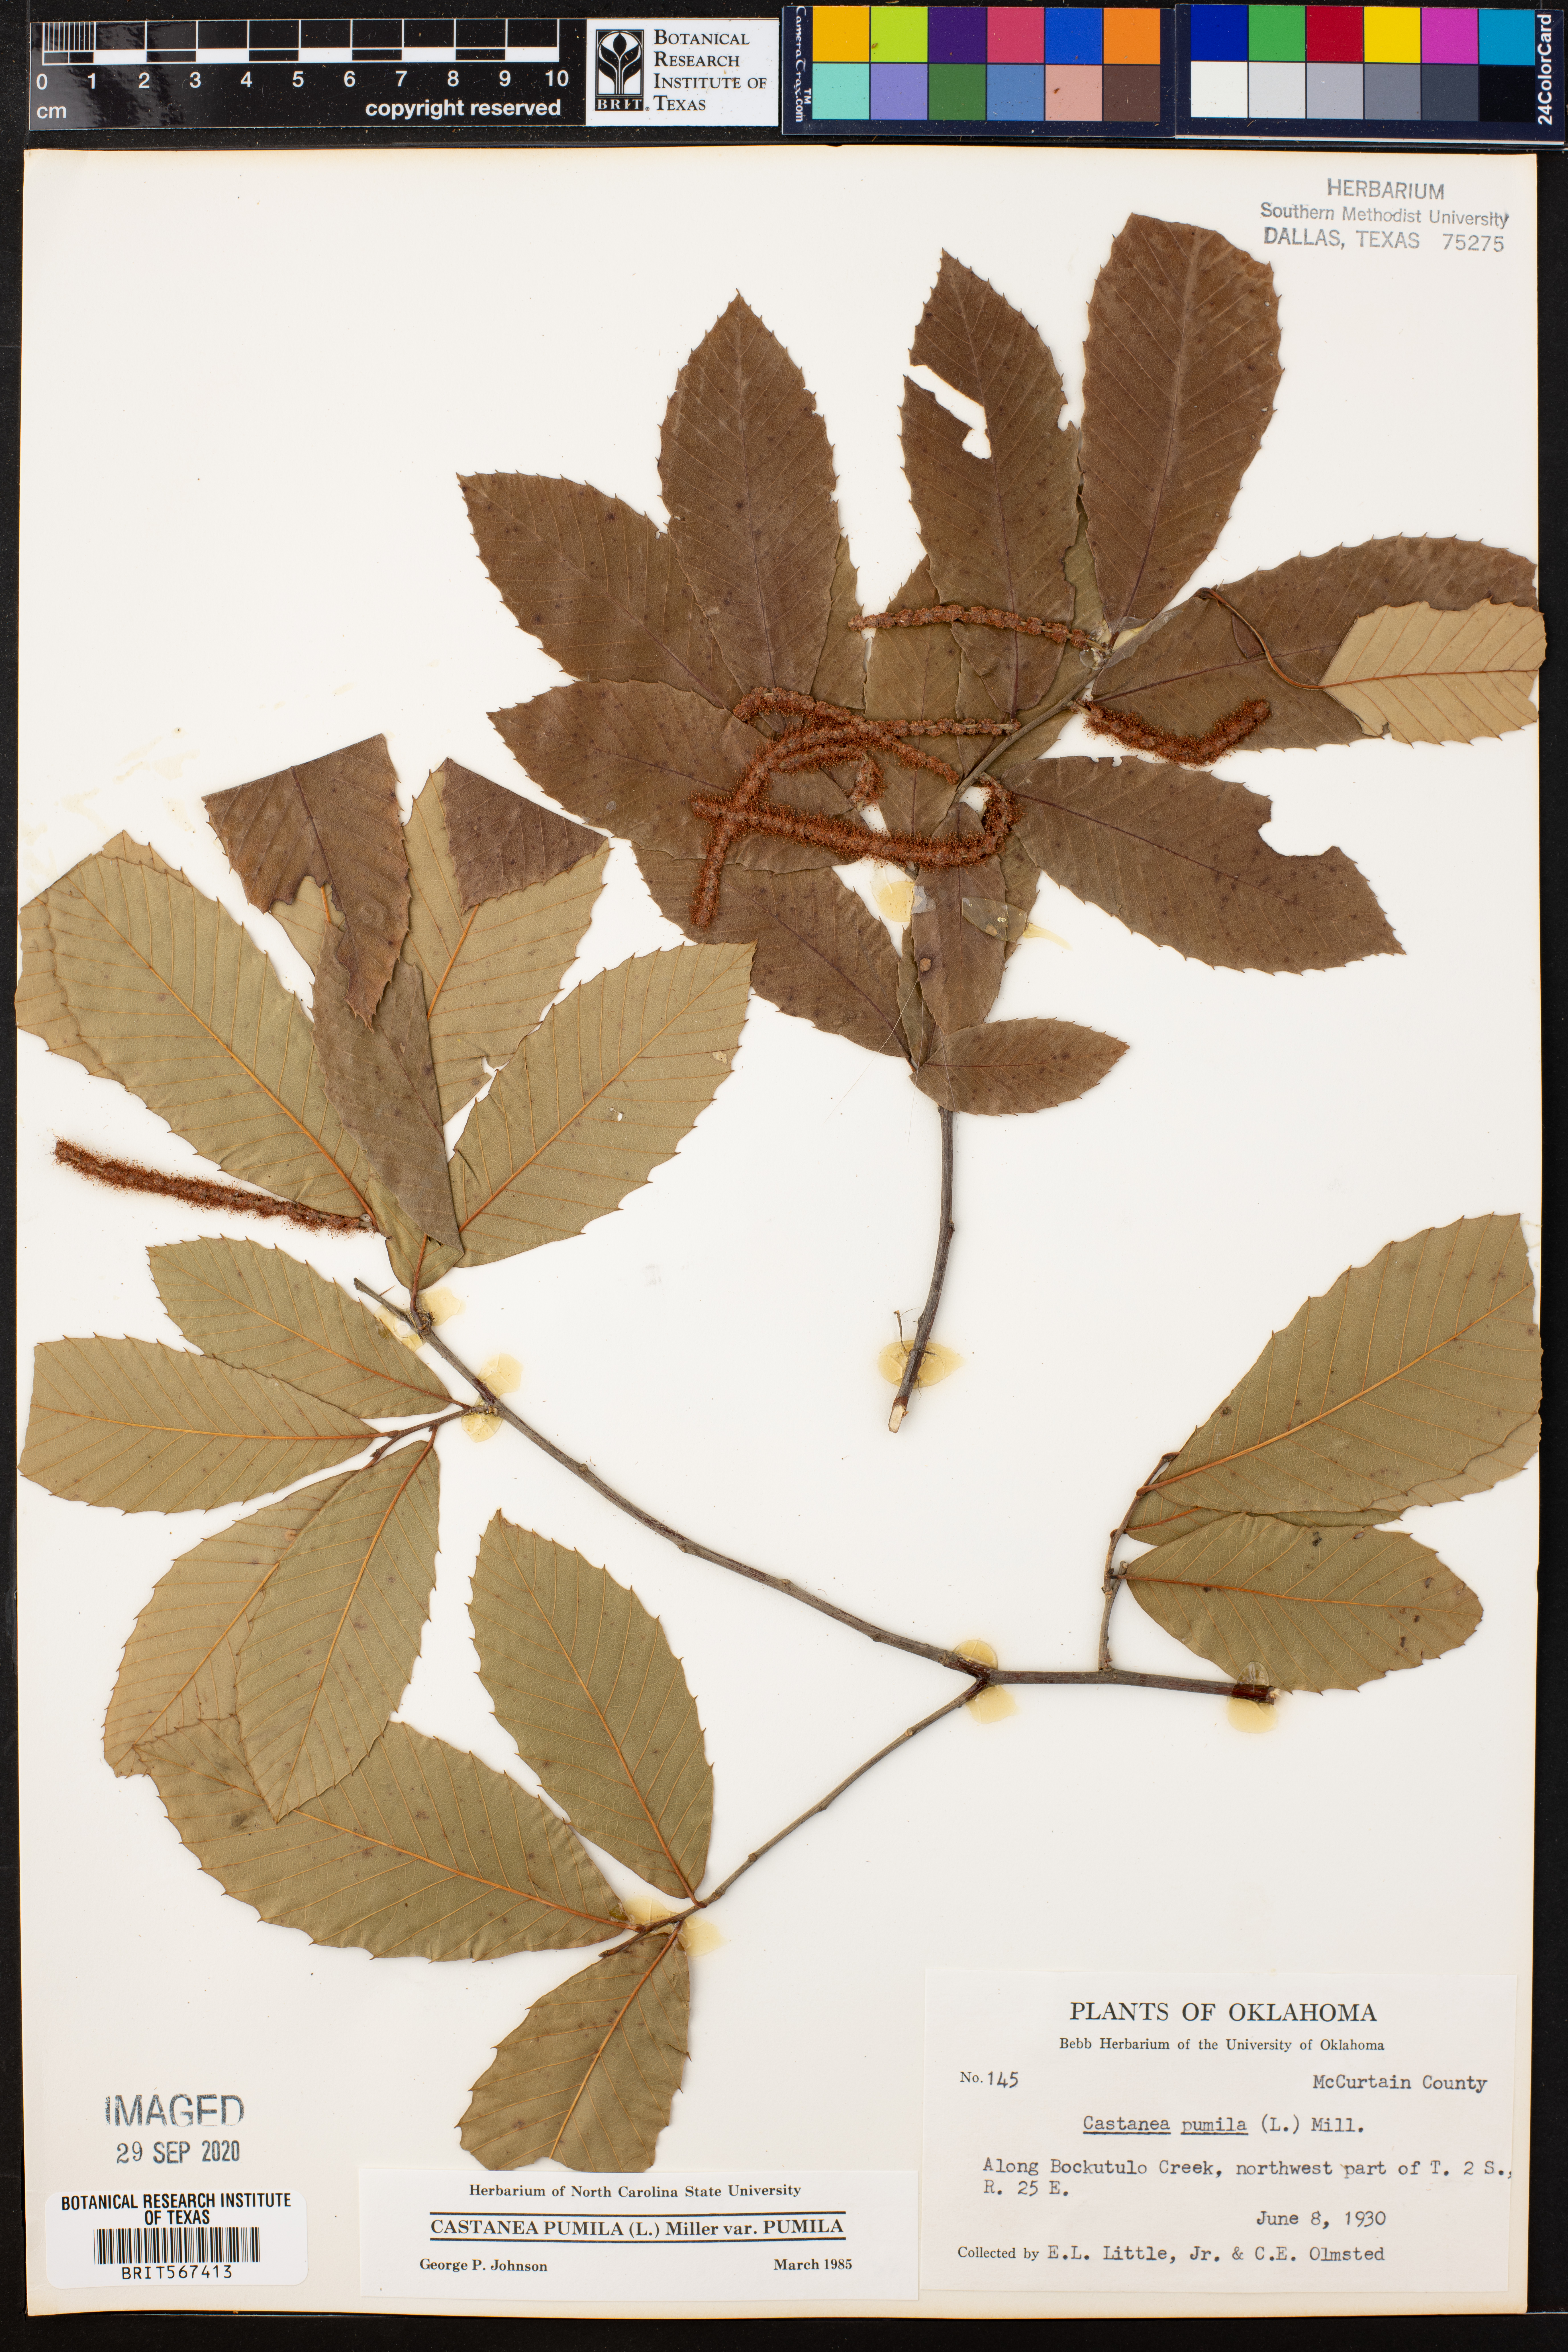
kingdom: Plantae
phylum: Tracheophyta
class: Magnoliopsida
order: Fagales
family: Fagaceae
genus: Castanea
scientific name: Castanea pumila
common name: Chinkapin
